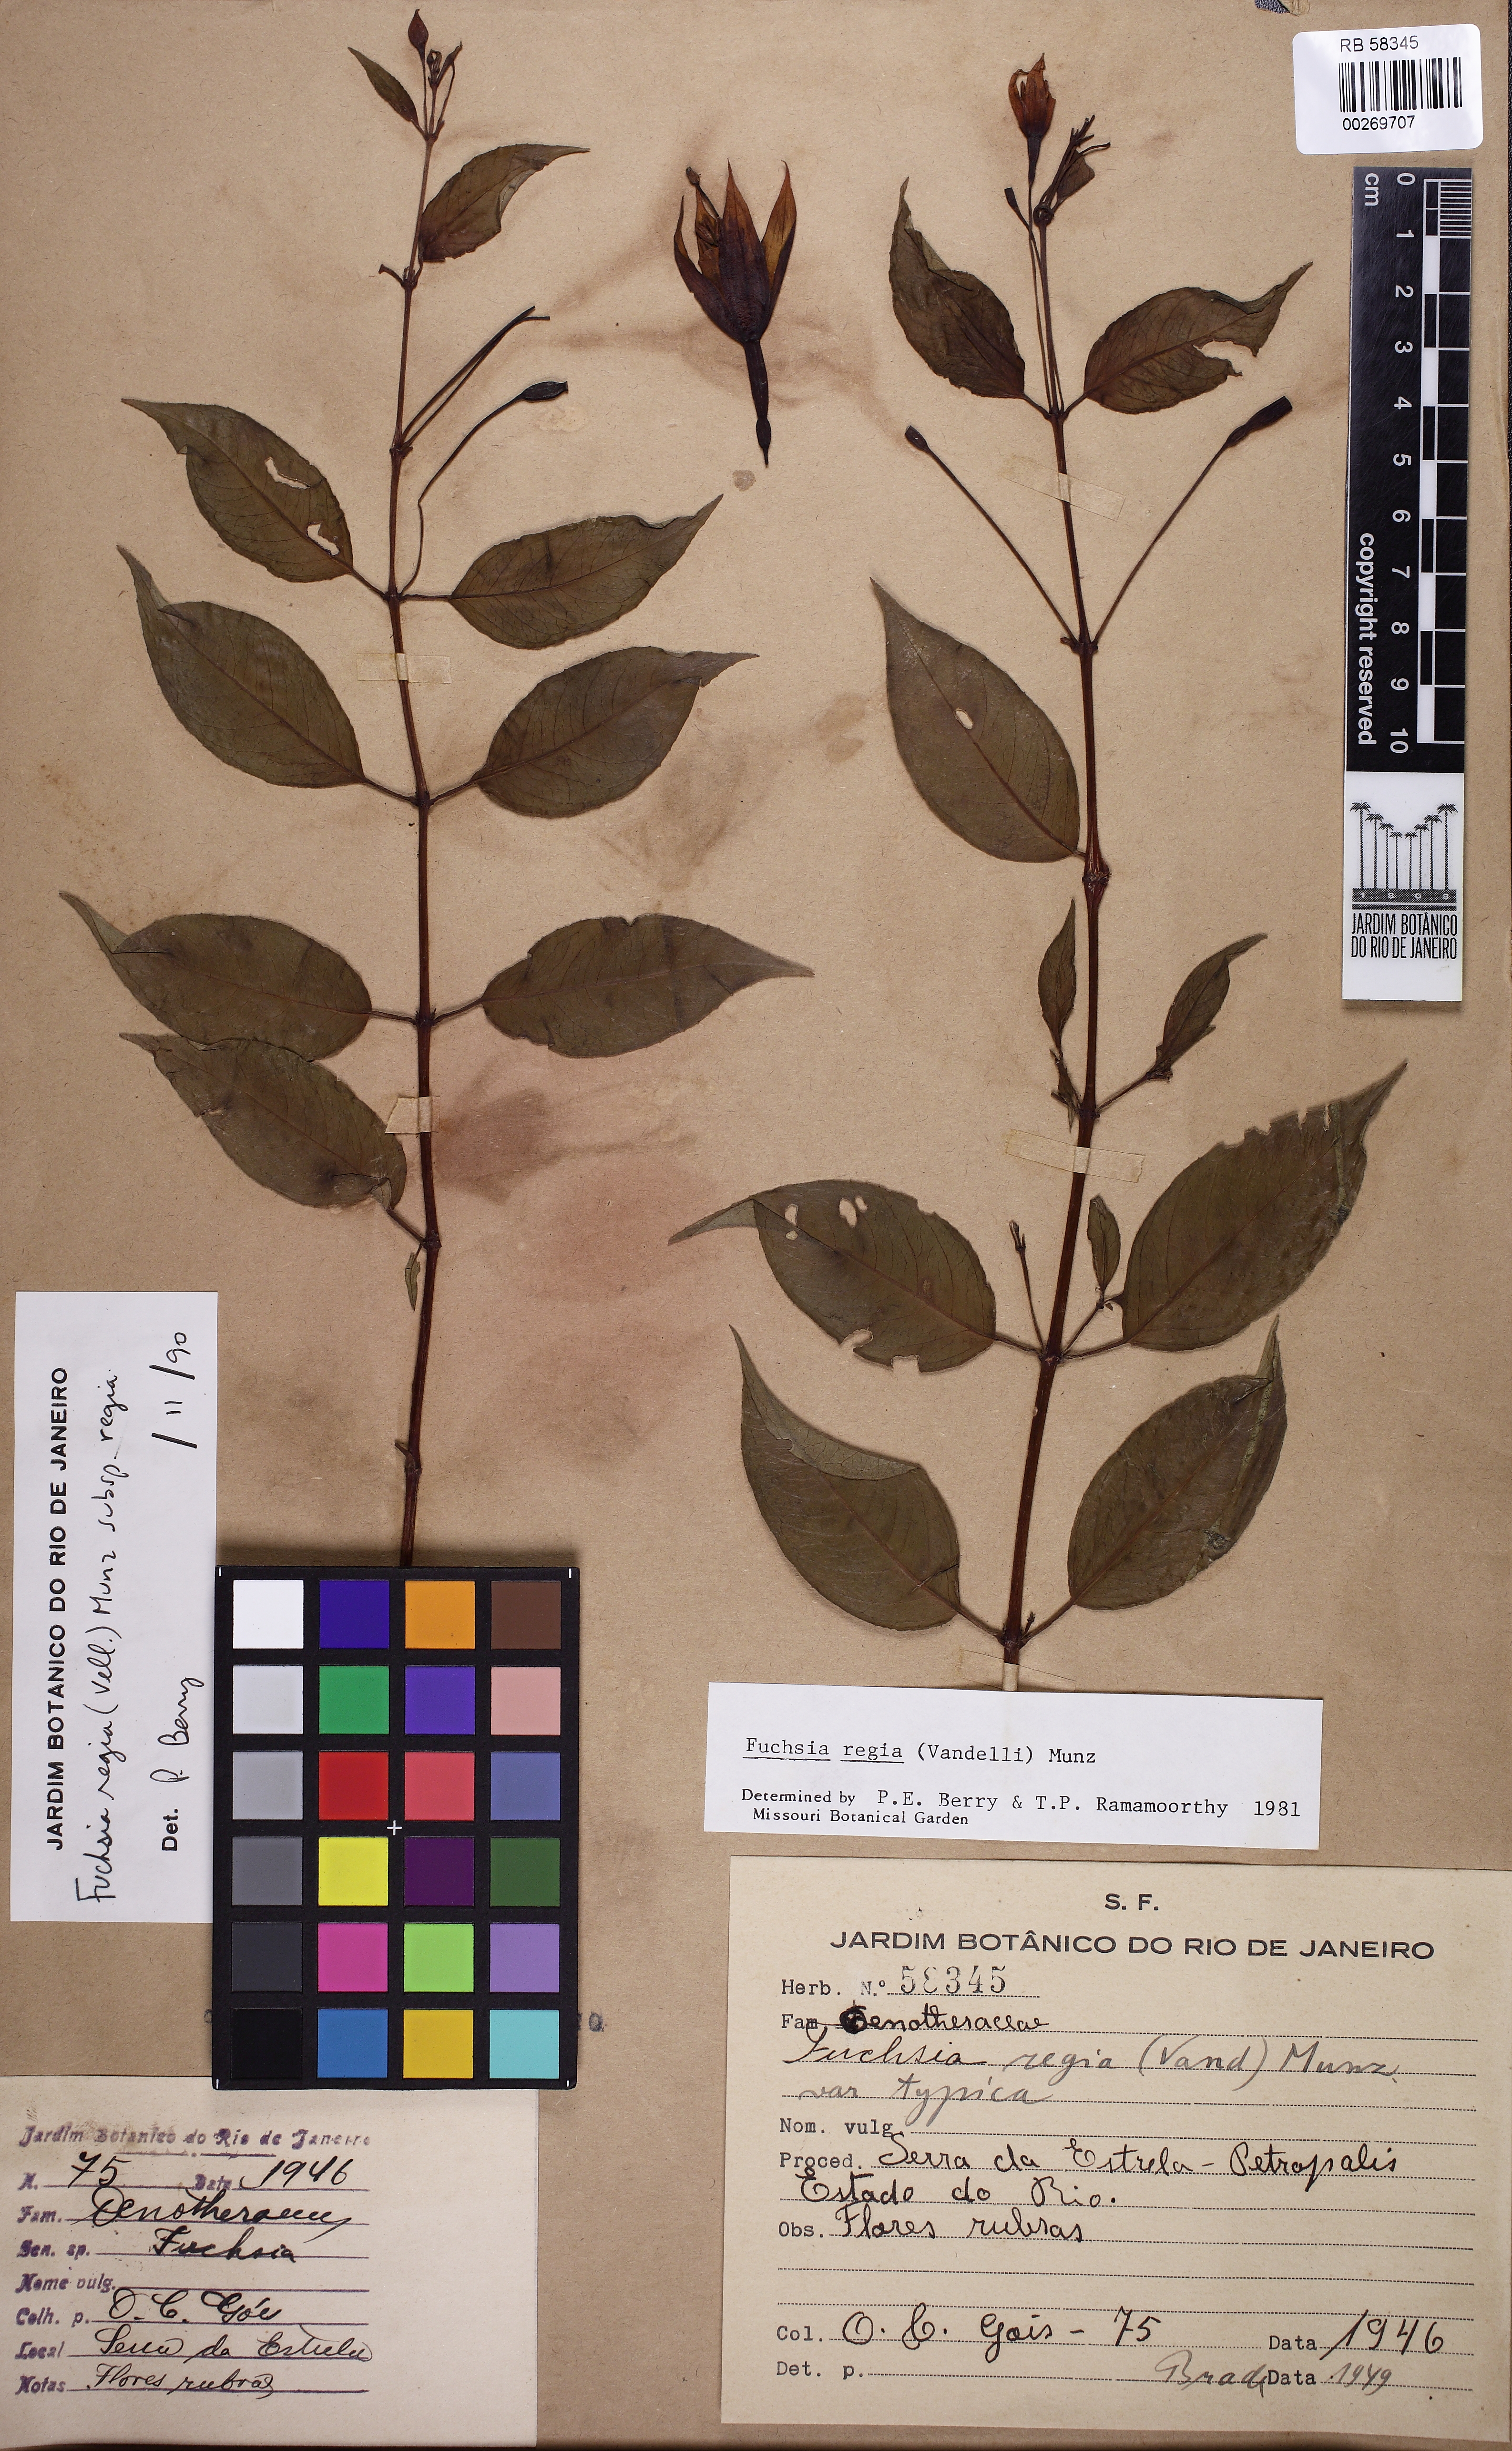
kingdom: Plantae
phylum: Tracheophyta
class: Magnoliopsida
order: Myrtales
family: Onagraceae
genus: Fuchsia
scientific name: Fuchsia regia
